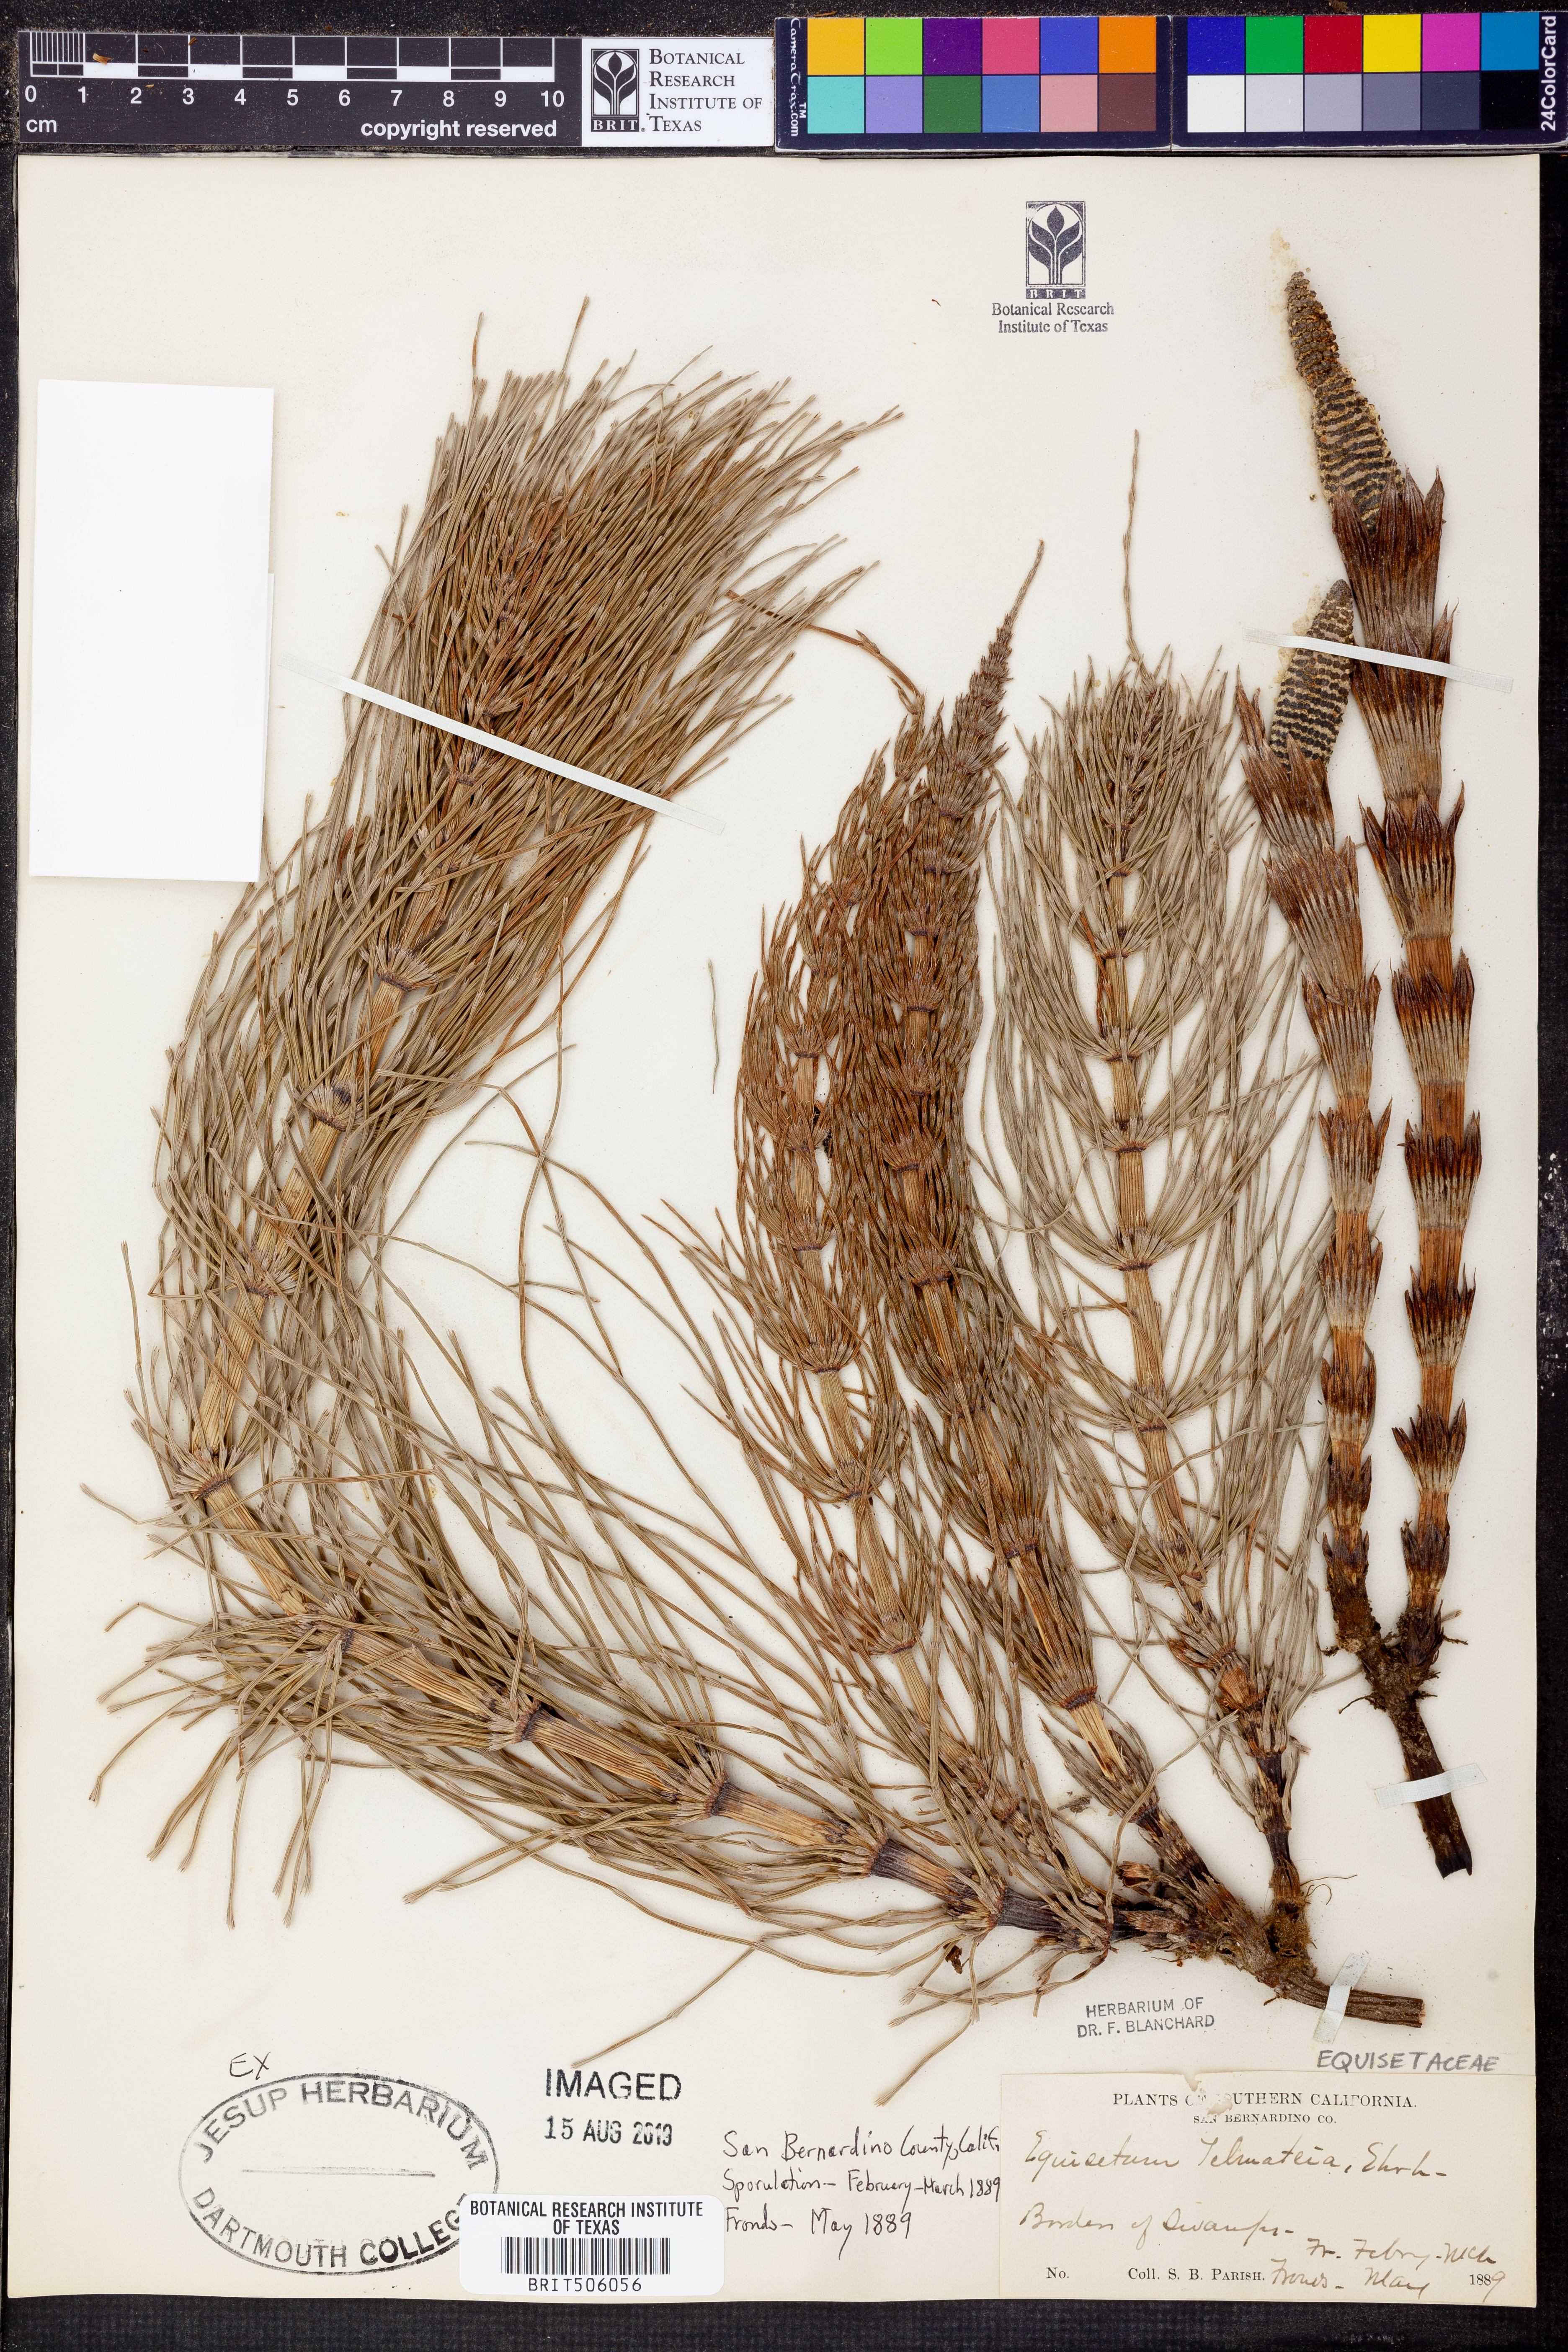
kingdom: Plantae
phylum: Tracheophyta
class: Polypodiopsida
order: Equisetales
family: Equisetaceae
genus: Equisetum
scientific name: Equisetum telmateia
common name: Great horsetail
